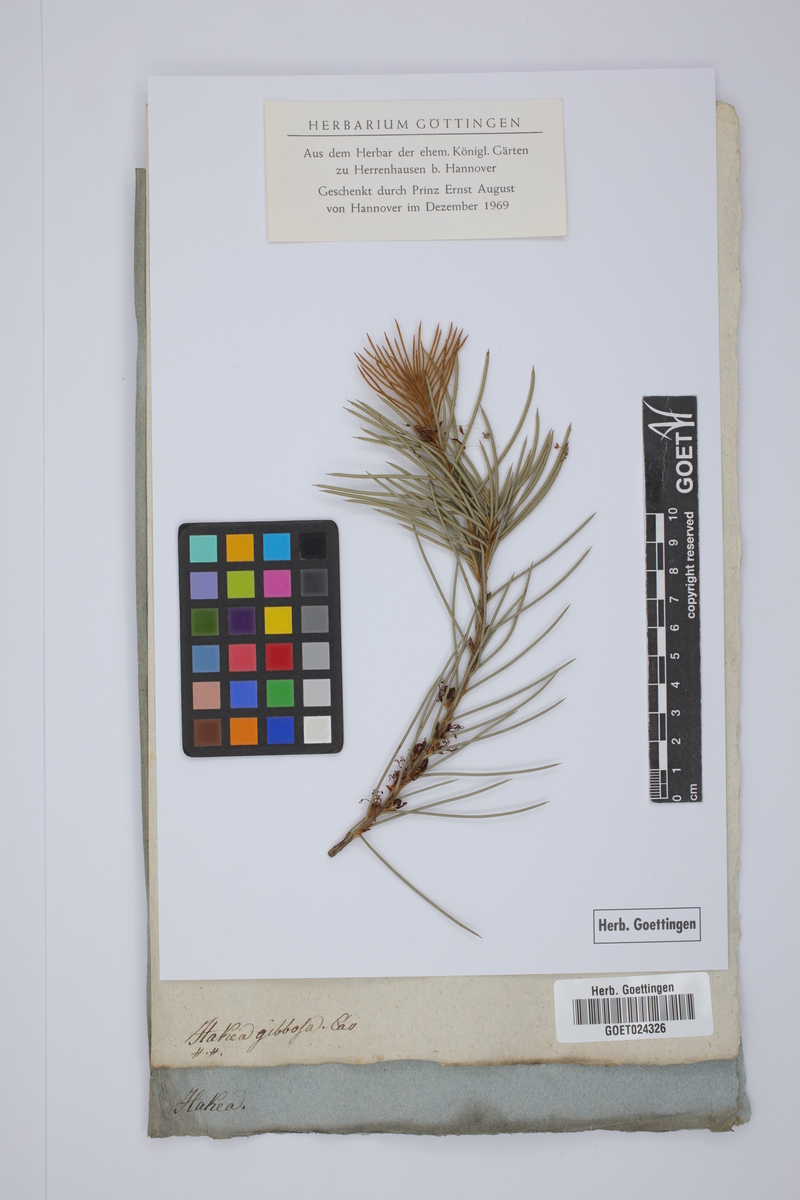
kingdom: Plantae
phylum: Tracheophyta
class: Magnoliopsida
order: Proteales
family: Proteaceae
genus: Hakea
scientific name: Hakea gibbosa
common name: Rock hakea
